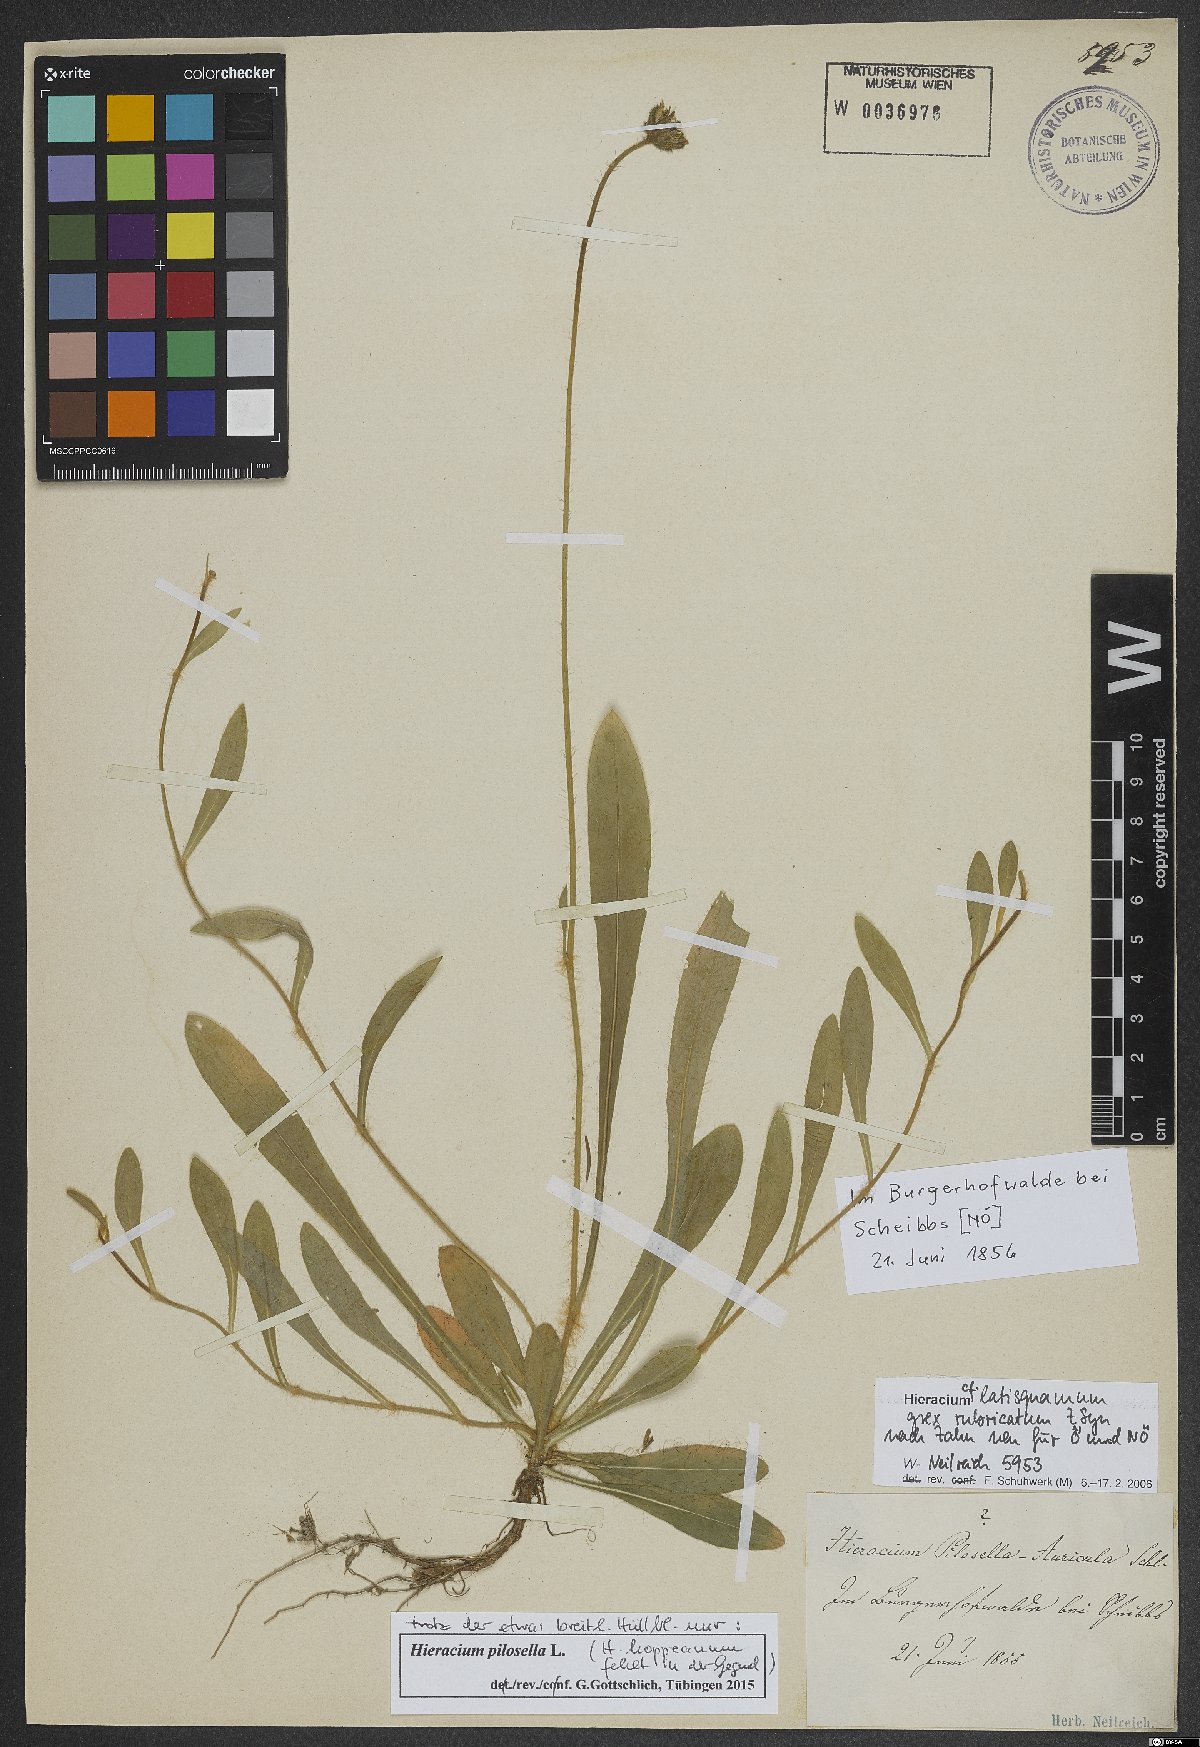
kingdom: Plantae
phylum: Tracheophyta
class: Magnoliopsida
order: Asterales
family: Asteraceae
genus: Pilosella
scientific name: Pilosella officinarum
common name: Mouse-ear hawkweed
